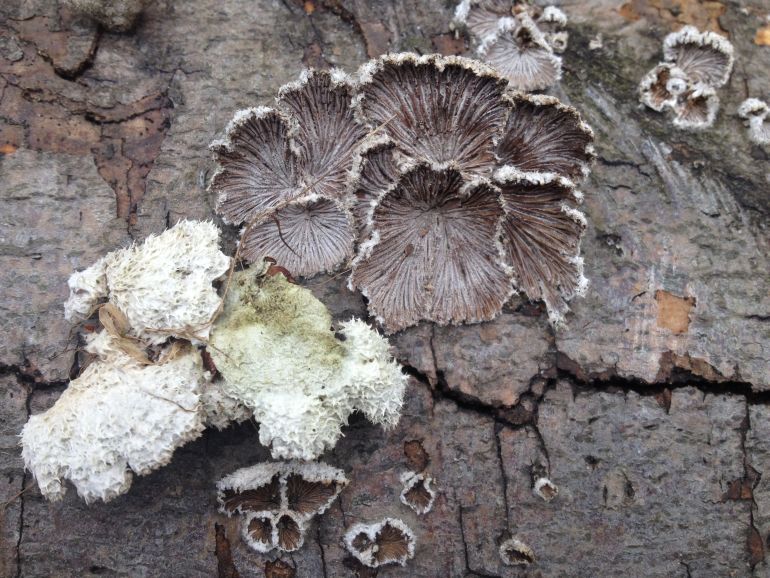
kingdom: Fungi
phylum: Basidiomycota
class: Agaricomycetes
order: Agaricales
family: Schizophyllaceae
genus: Schizophyllum
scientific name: Schizophyllum commune
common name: kløvblad
